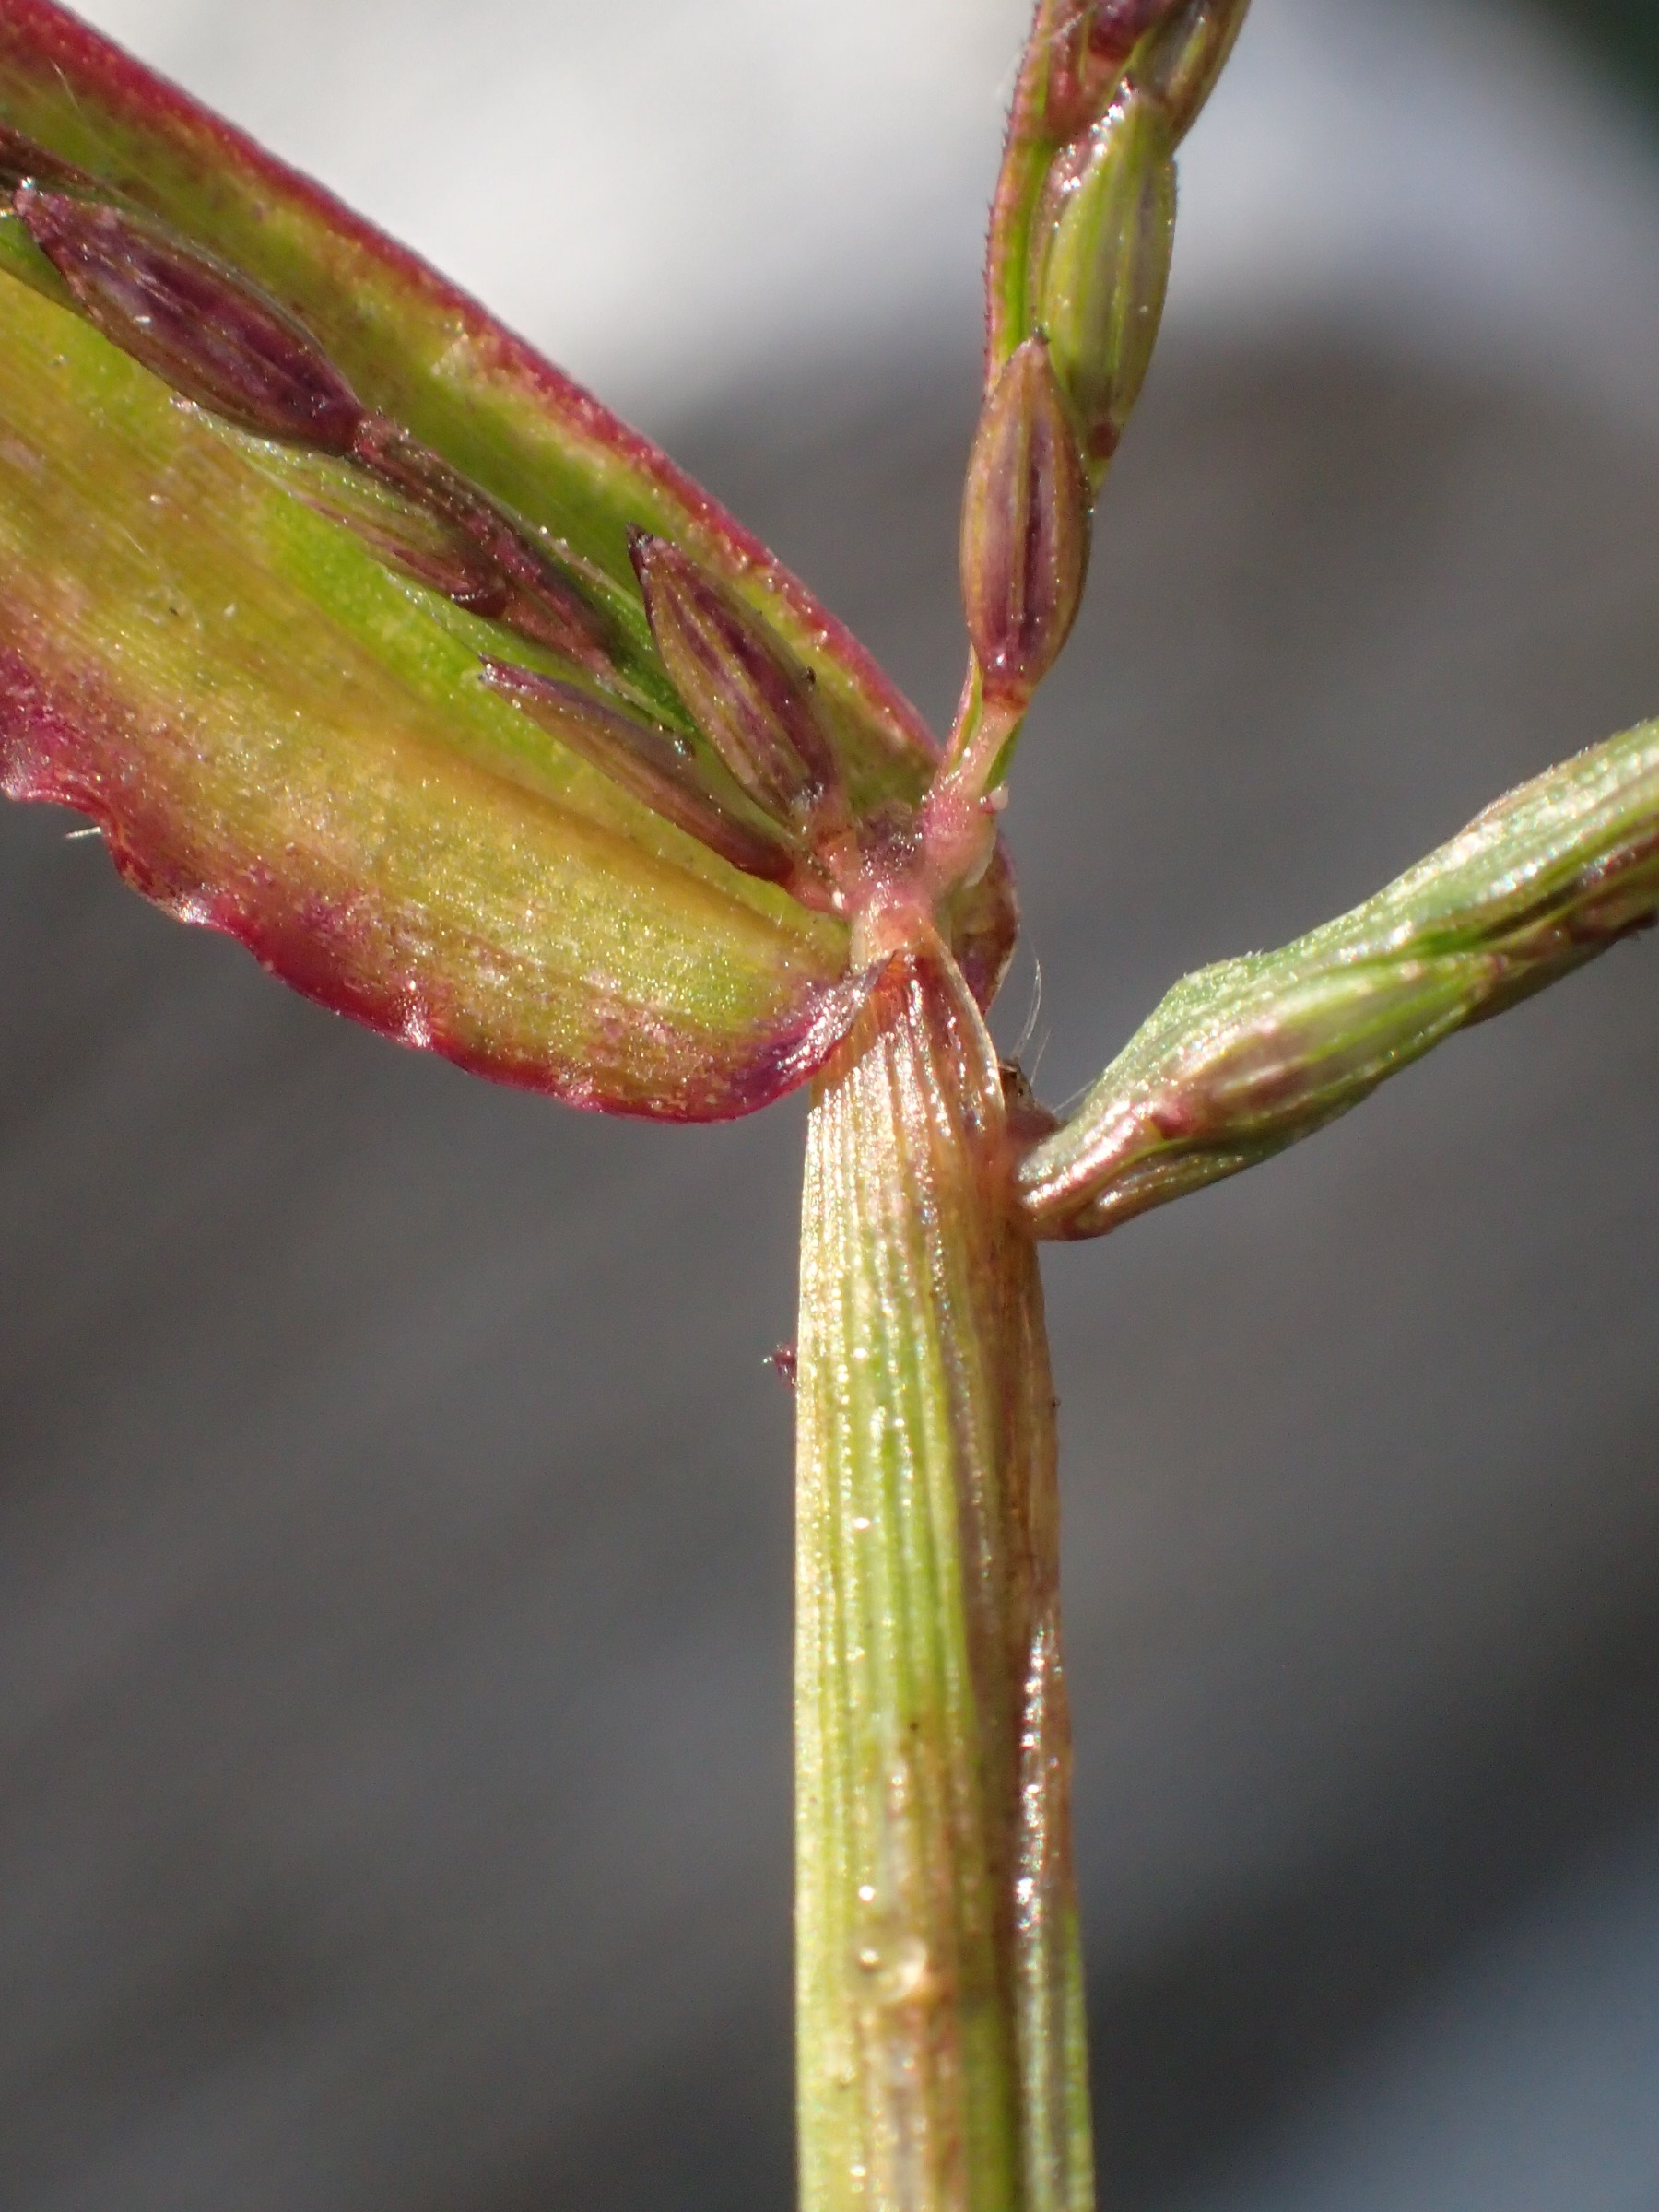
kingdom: Plantae
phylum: Tracheophyta
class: Liliopsida
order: Poales
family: Poaceae
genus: Digitaria
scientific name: Digitaria sanguinalis
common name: Blodhirse
